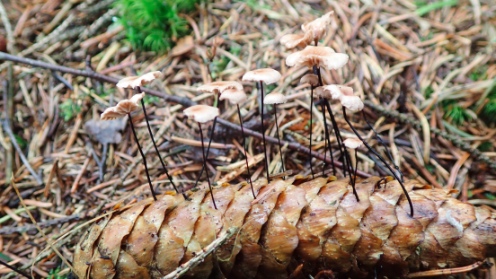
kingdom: Fungi
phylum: Basidiomycota
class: Agaricomycetes
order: Agaricales
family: Omphalotaceae
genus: Gymnopus
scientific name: Gymnopus androsaceus
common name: trådstokket fladhat
